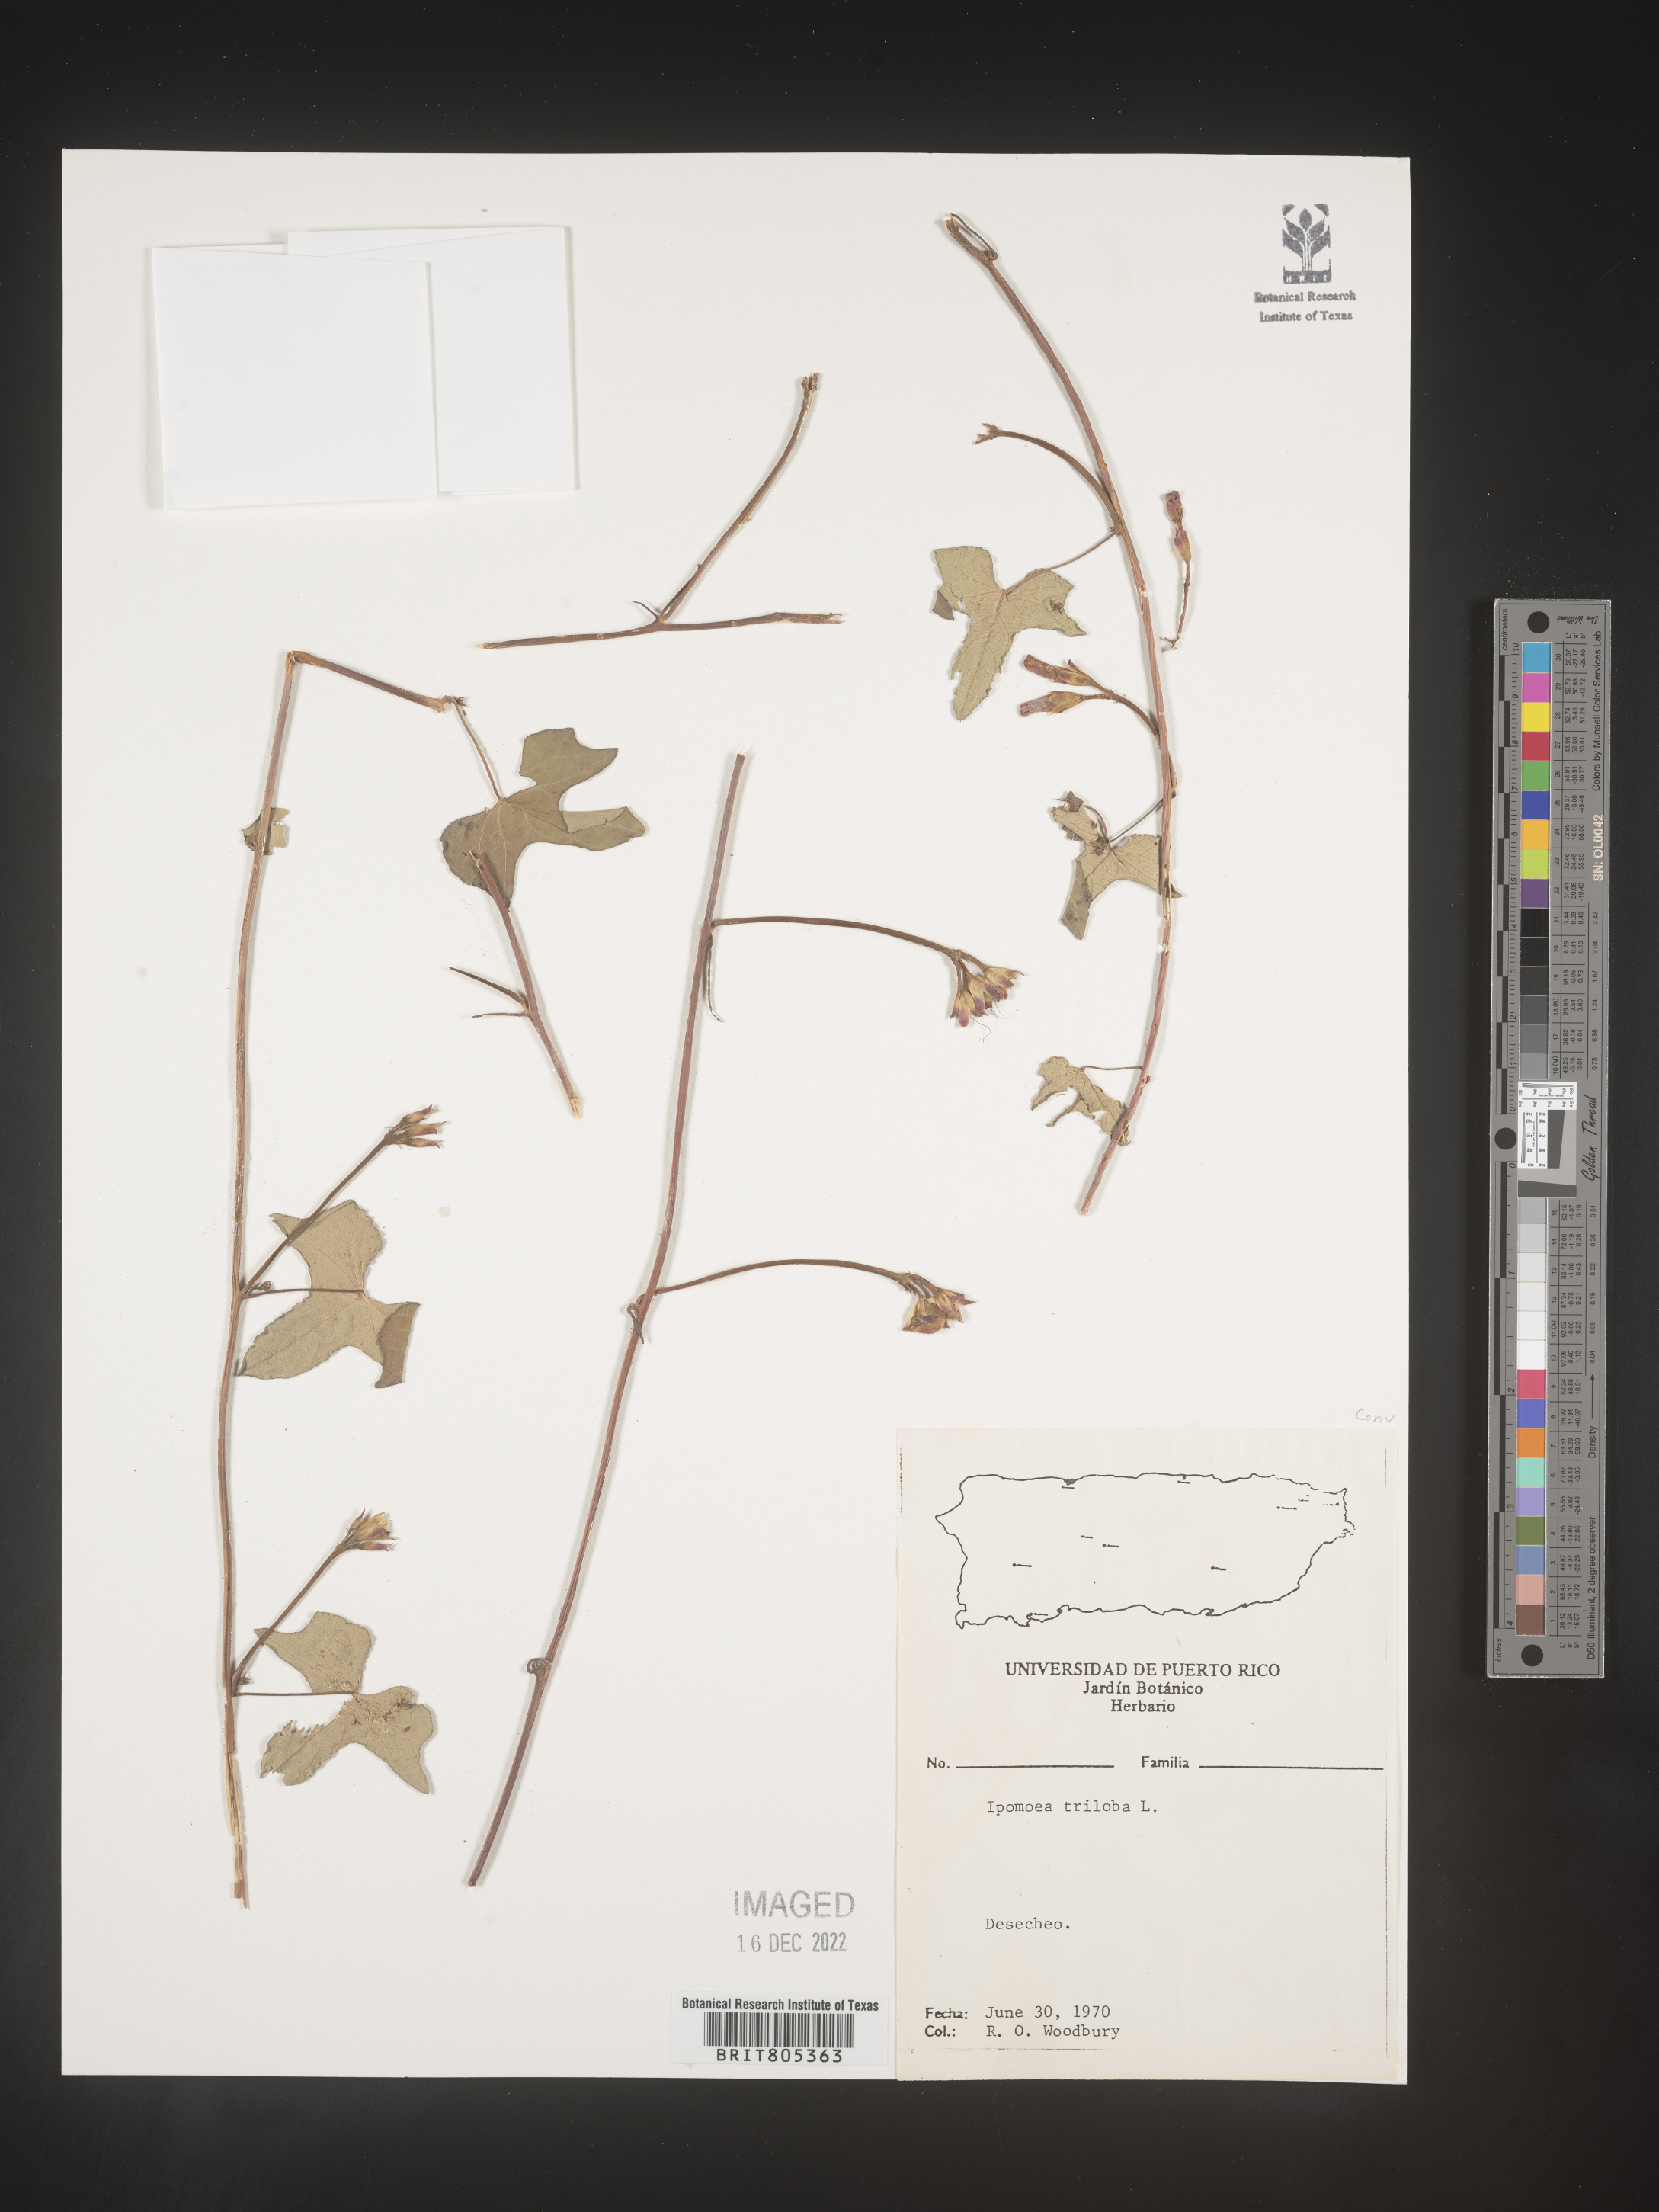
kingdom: Plantae
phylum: Tracheophyta
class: Magnoliopsida
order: Solanales
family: Convolvulaceae
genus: Ipomoea
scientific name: Ipomoea
